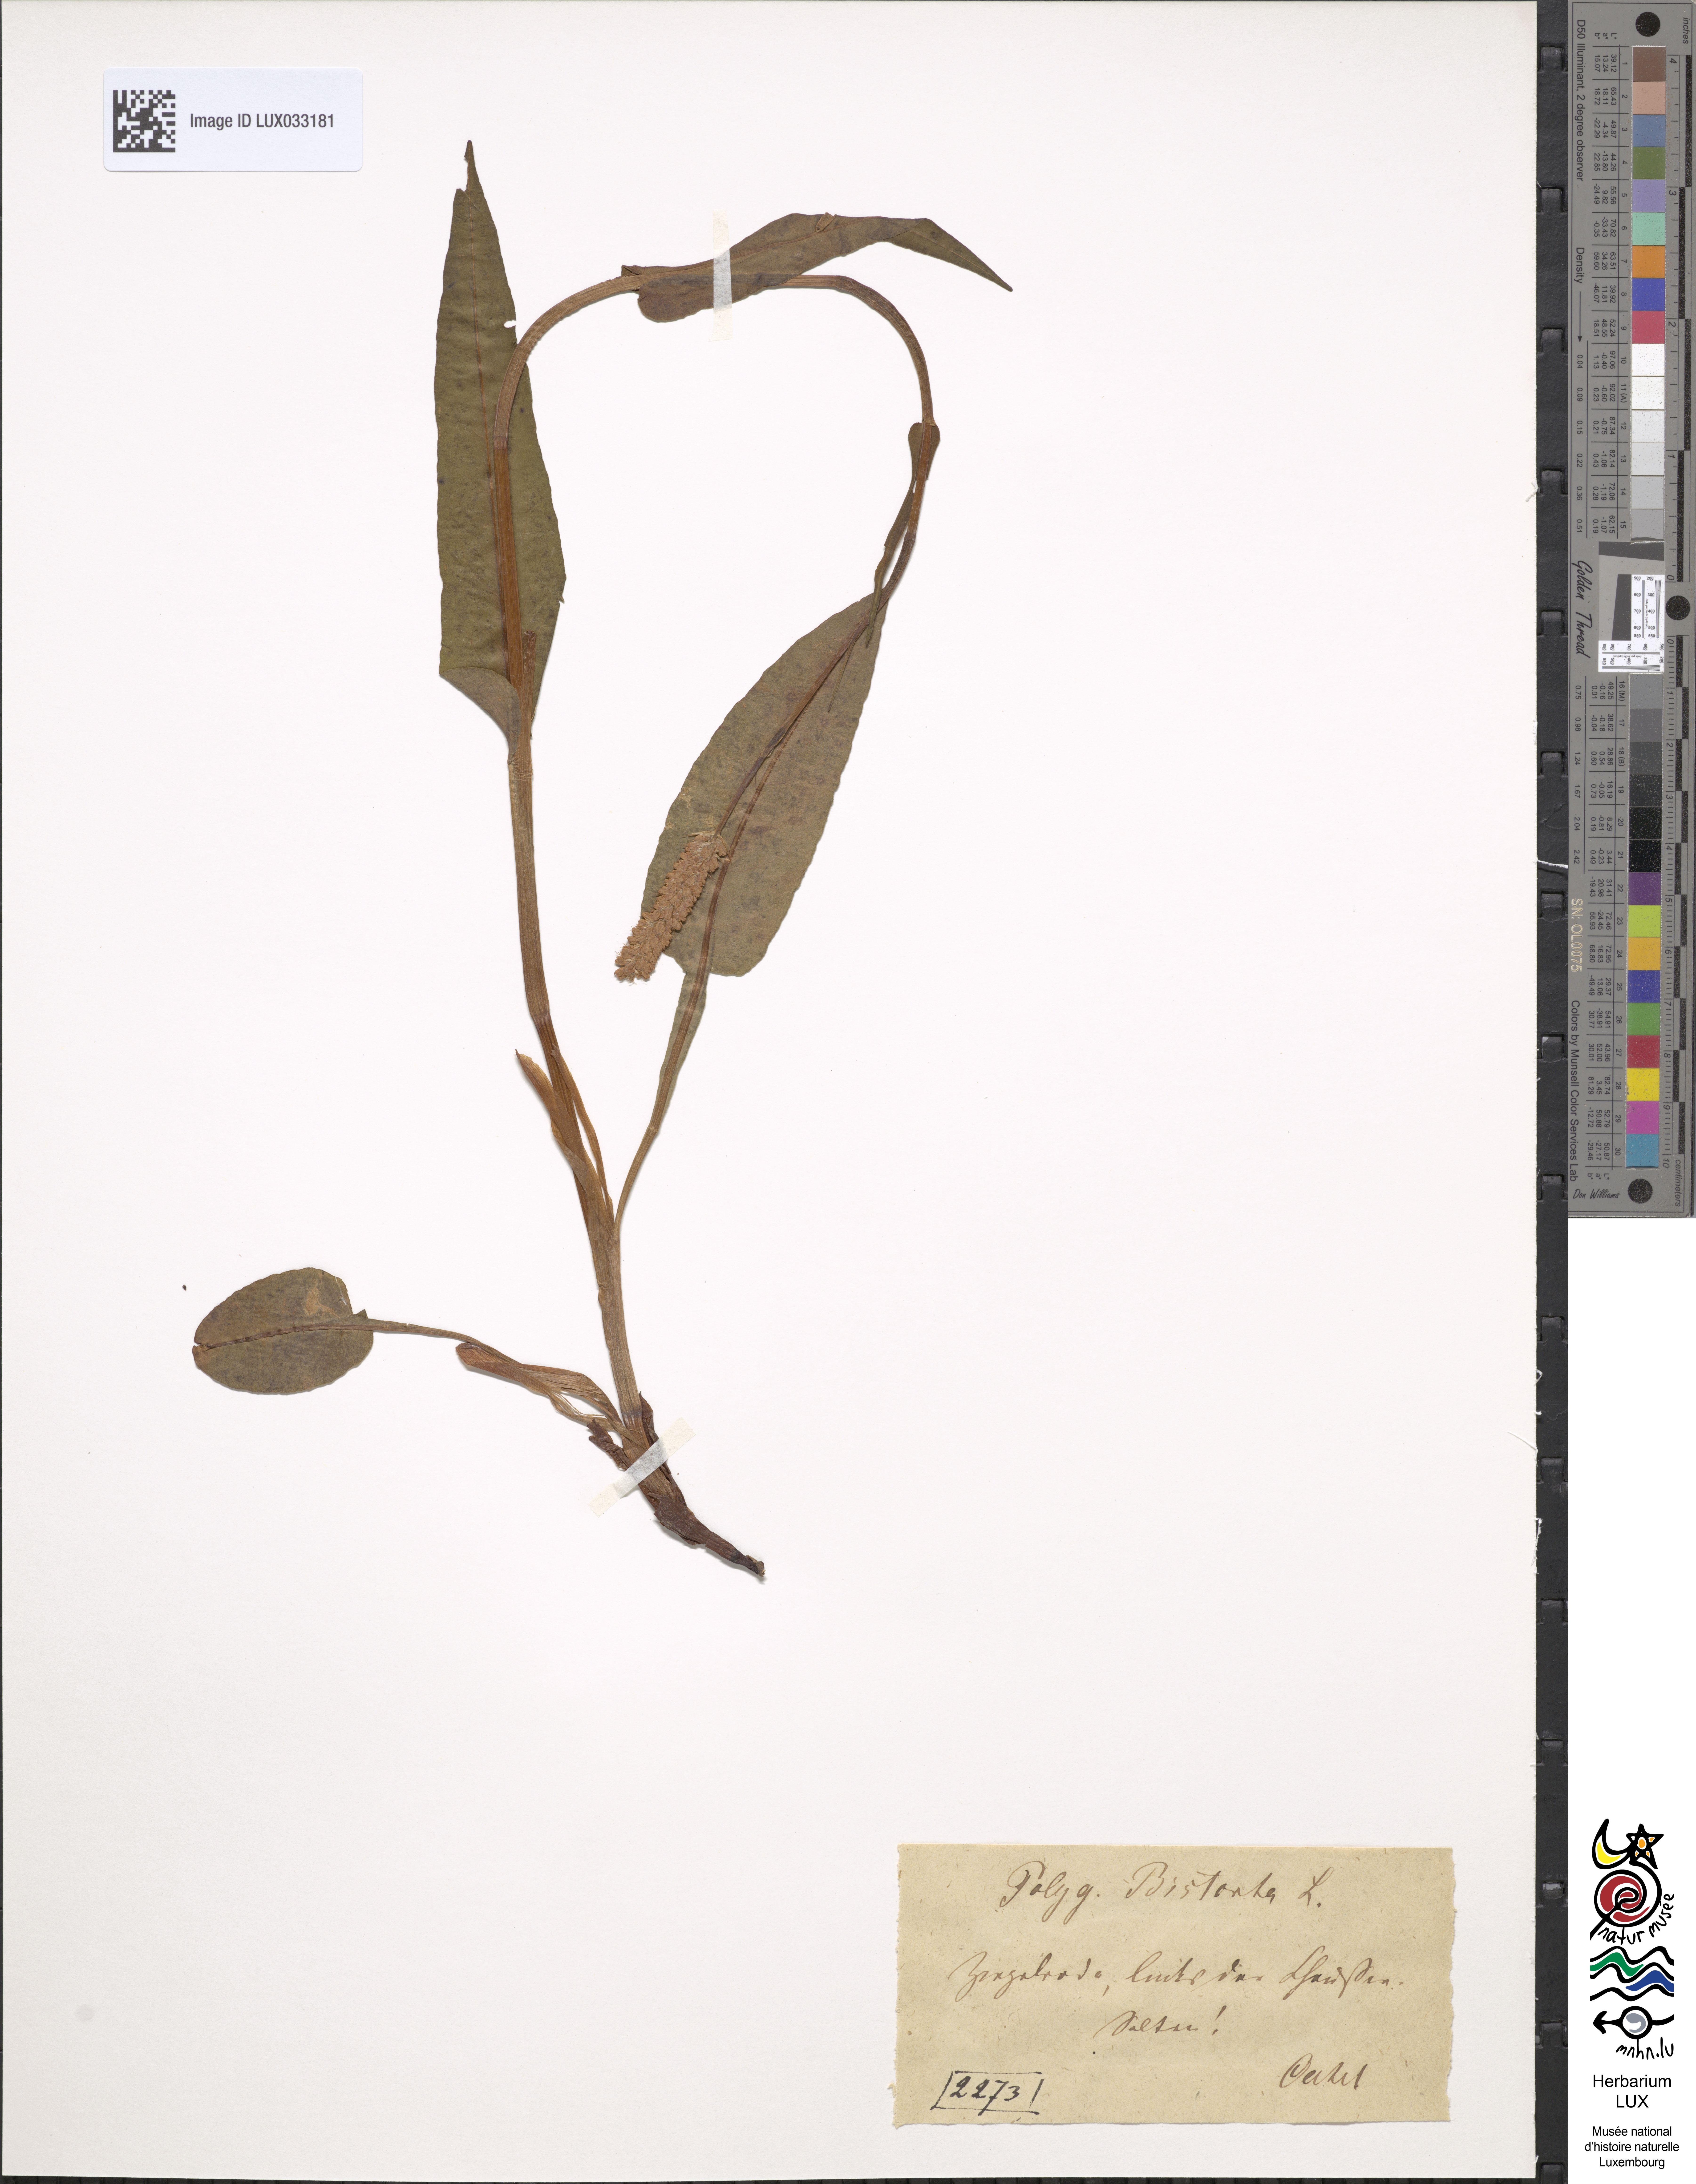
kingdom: Plantae
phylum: Tracheophyta
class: Magnoliopsida
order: Caryophyllales
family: Polygonaceae
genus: Bistorta
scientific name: Bistorta officinalis
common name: Common bistort
